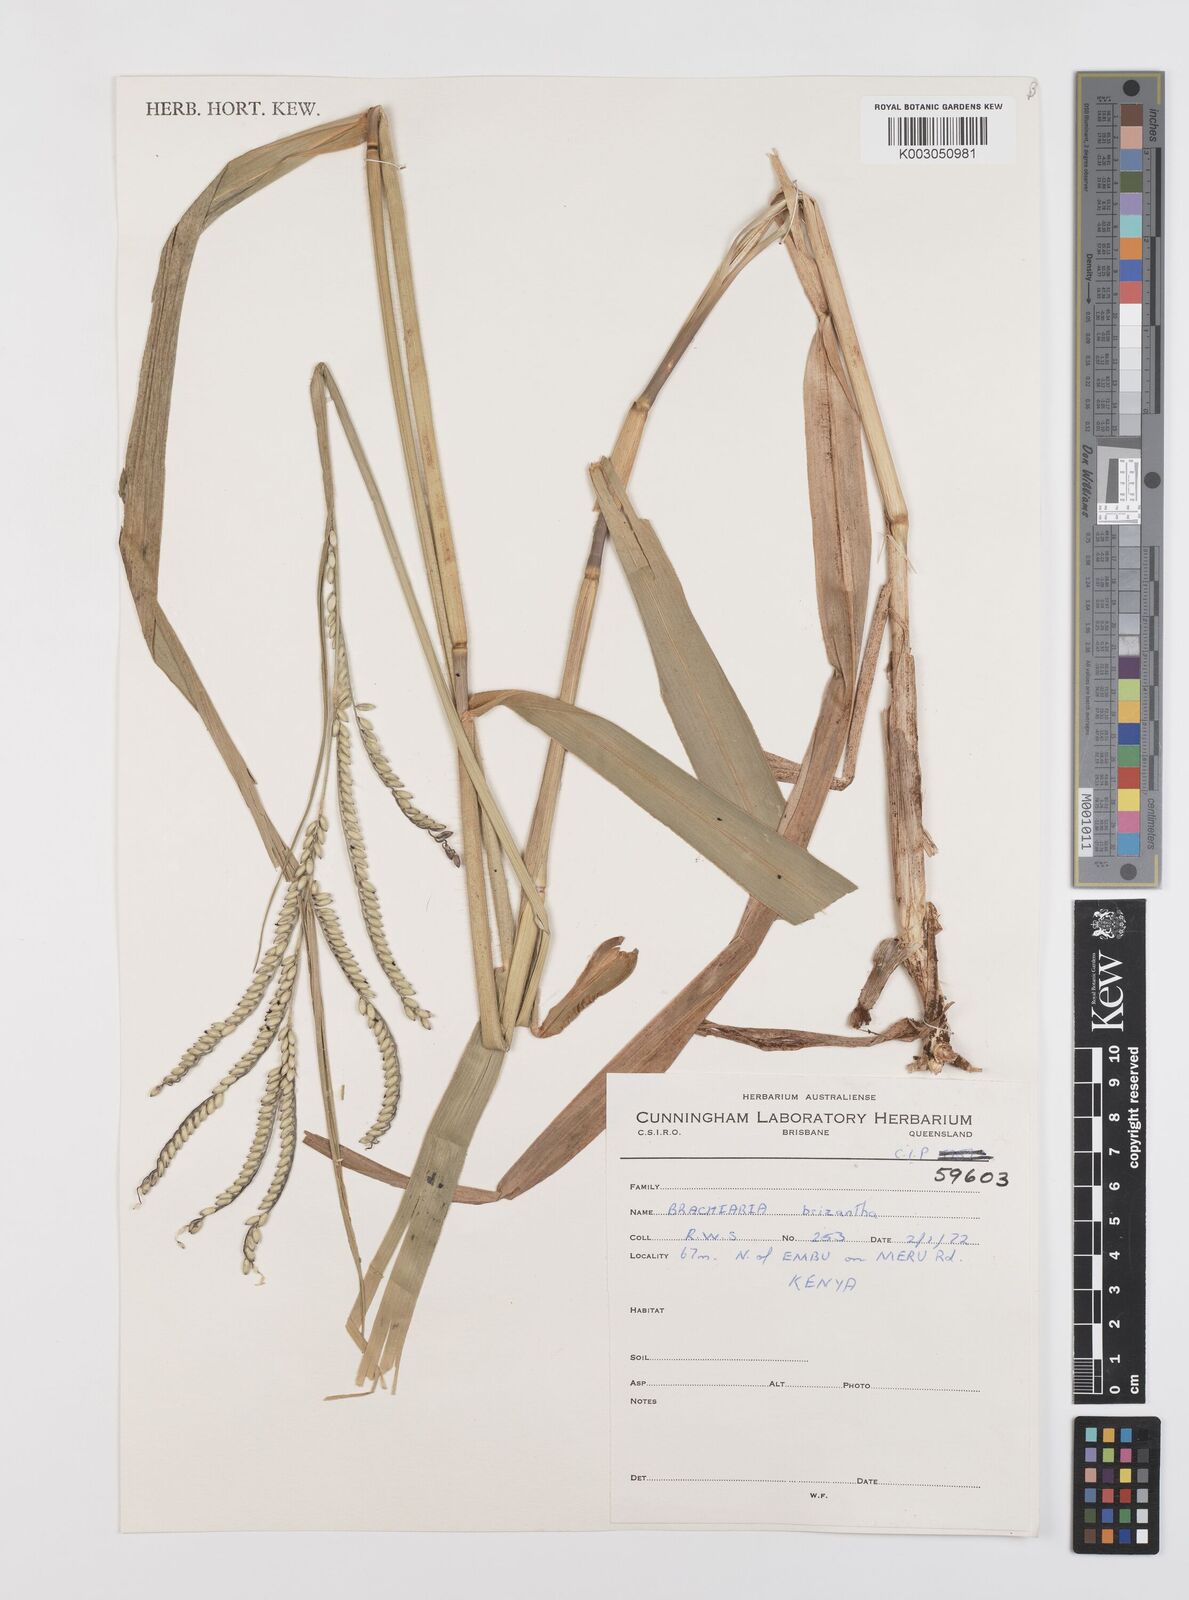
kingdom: Plantae
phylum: Tracheophyta
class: Liliopsida
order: Poales
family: Poaceae
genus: Urochloa
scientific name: Urochloa brizantha
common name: Palisade signalgrass
